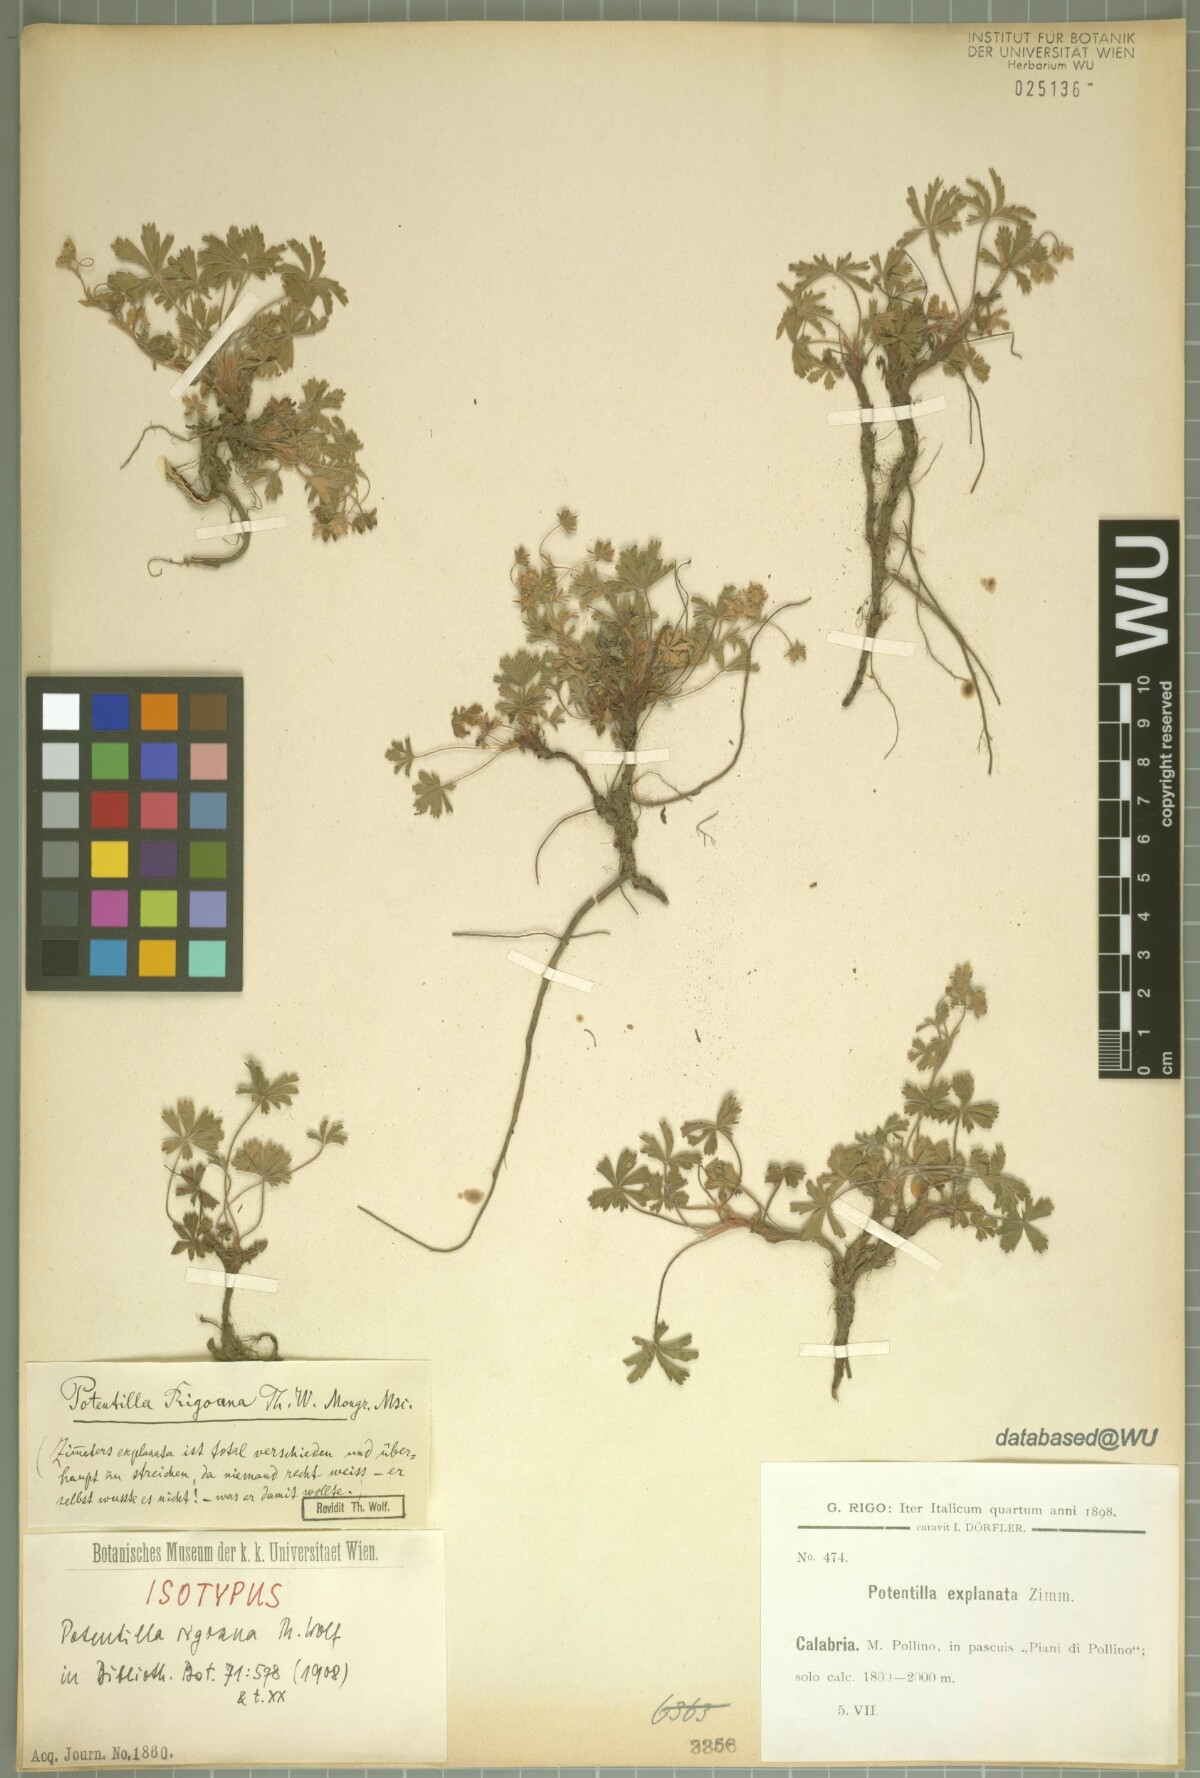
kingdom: Plantae
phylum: Tracheophyta
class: Magnoliopsida
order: Rosales
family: Rosaceae
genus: Potentilla
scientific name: Potentilla rigoana
